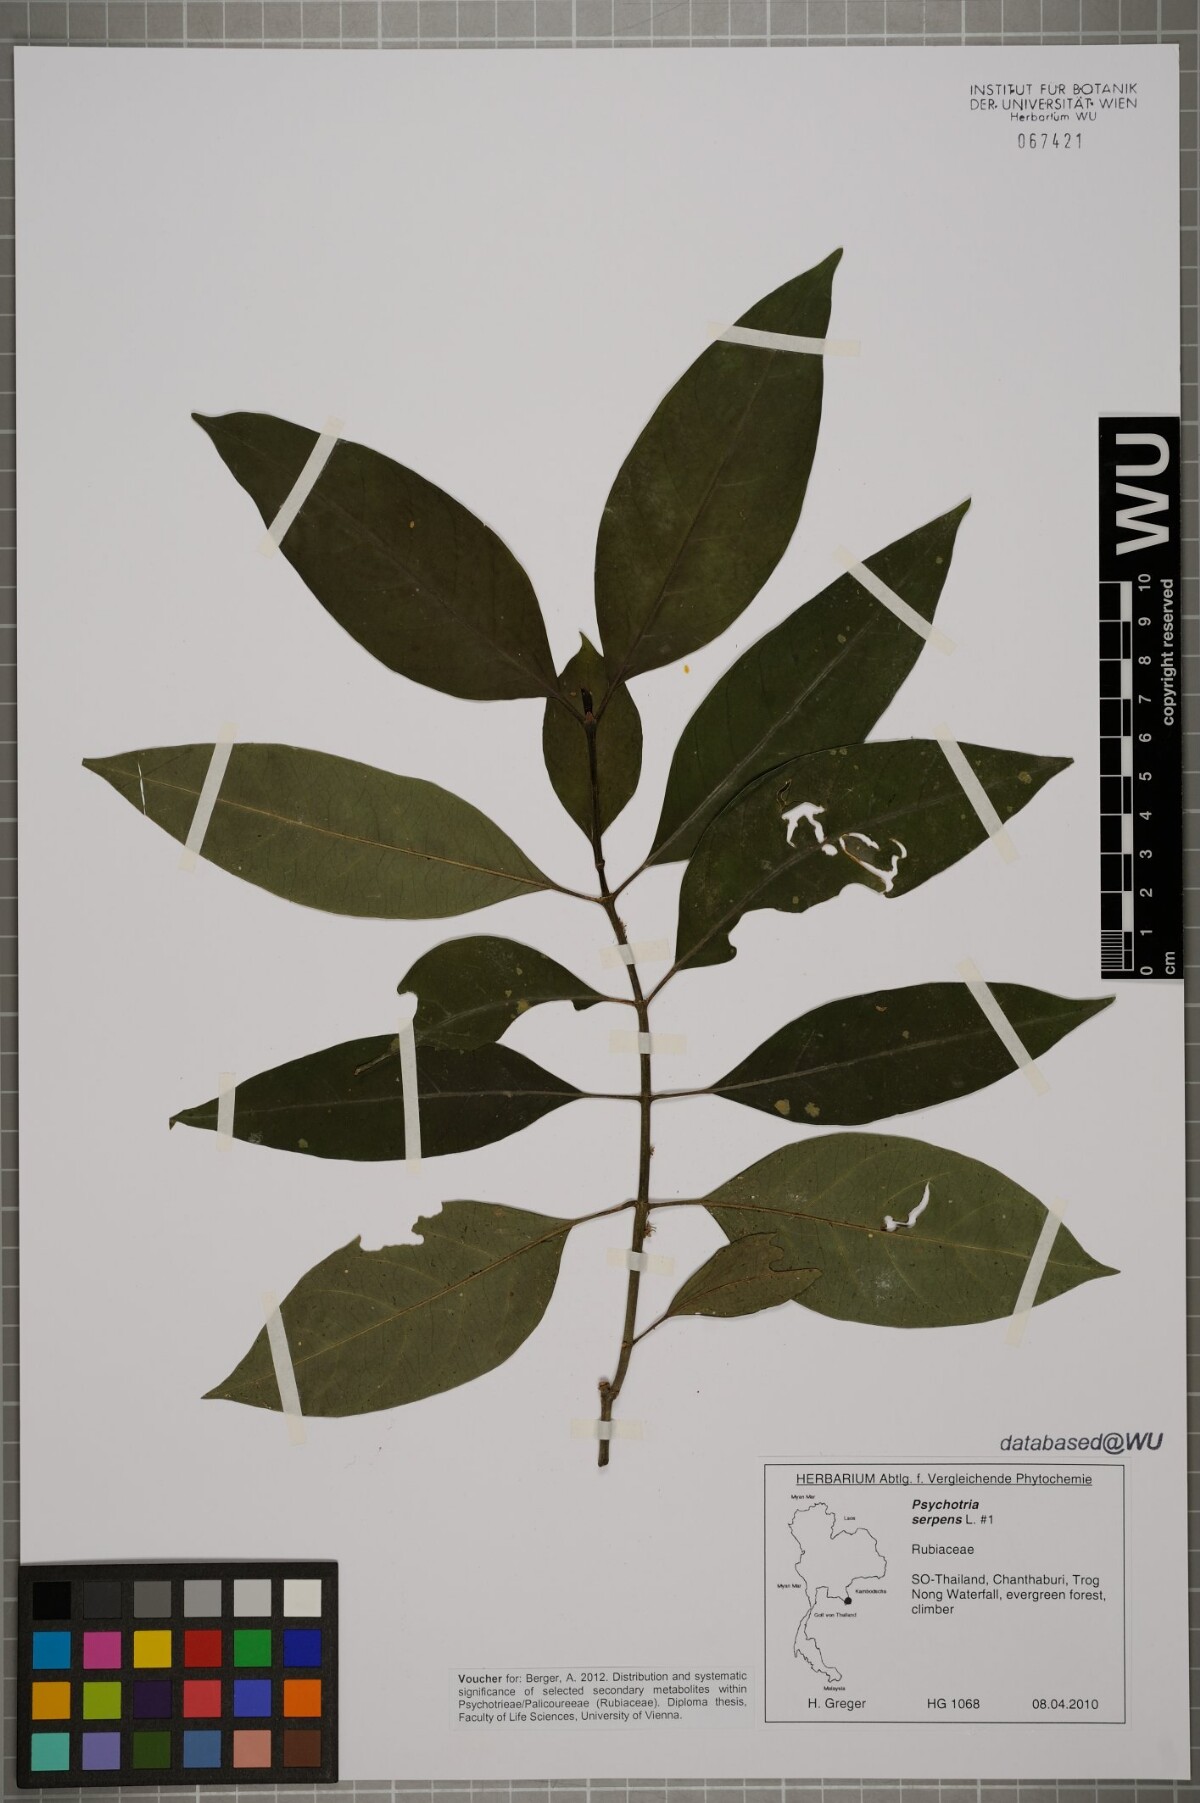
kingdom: Plantae
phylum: Tracheophyta
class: Magnoliopsida
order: Gentianales
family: Rubiaceae
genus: Psychotria
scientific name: Psychotria serpens
